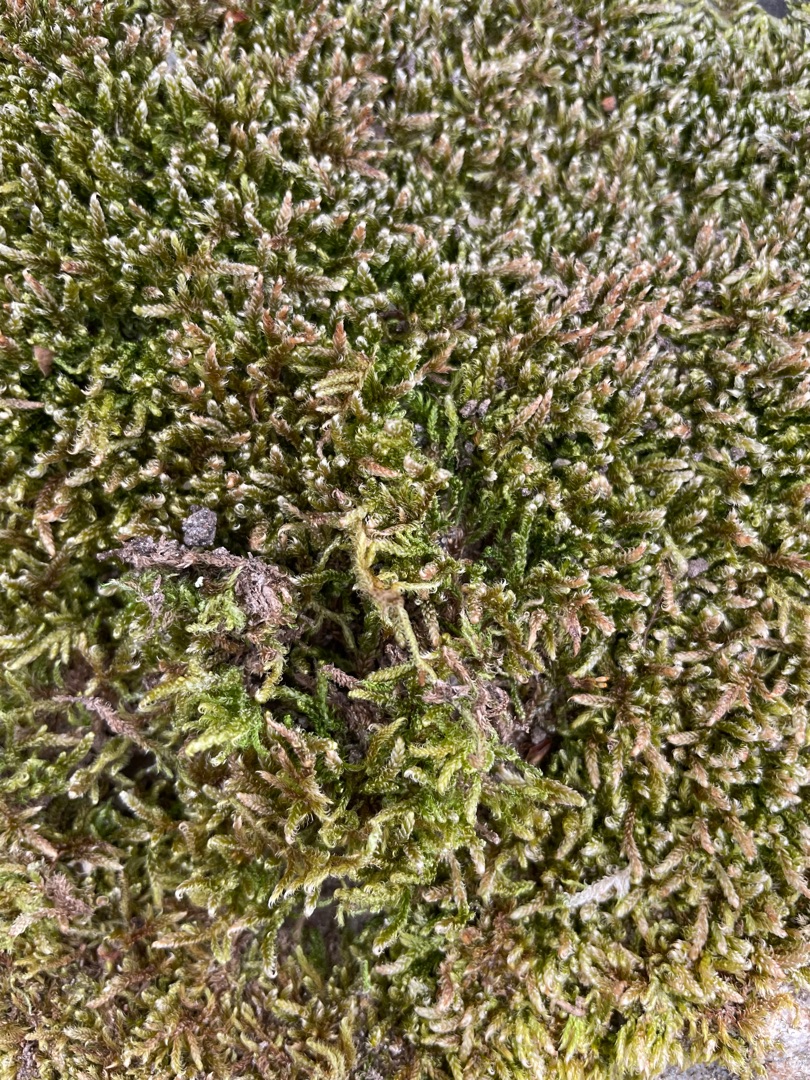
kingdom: Plantae
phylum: Bryophyta
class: Bryopsida
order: Hypnales
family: Hypnaceae
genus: Hypnum
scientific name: Hypnum cupressiforme
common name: Almindelig cypresmos
